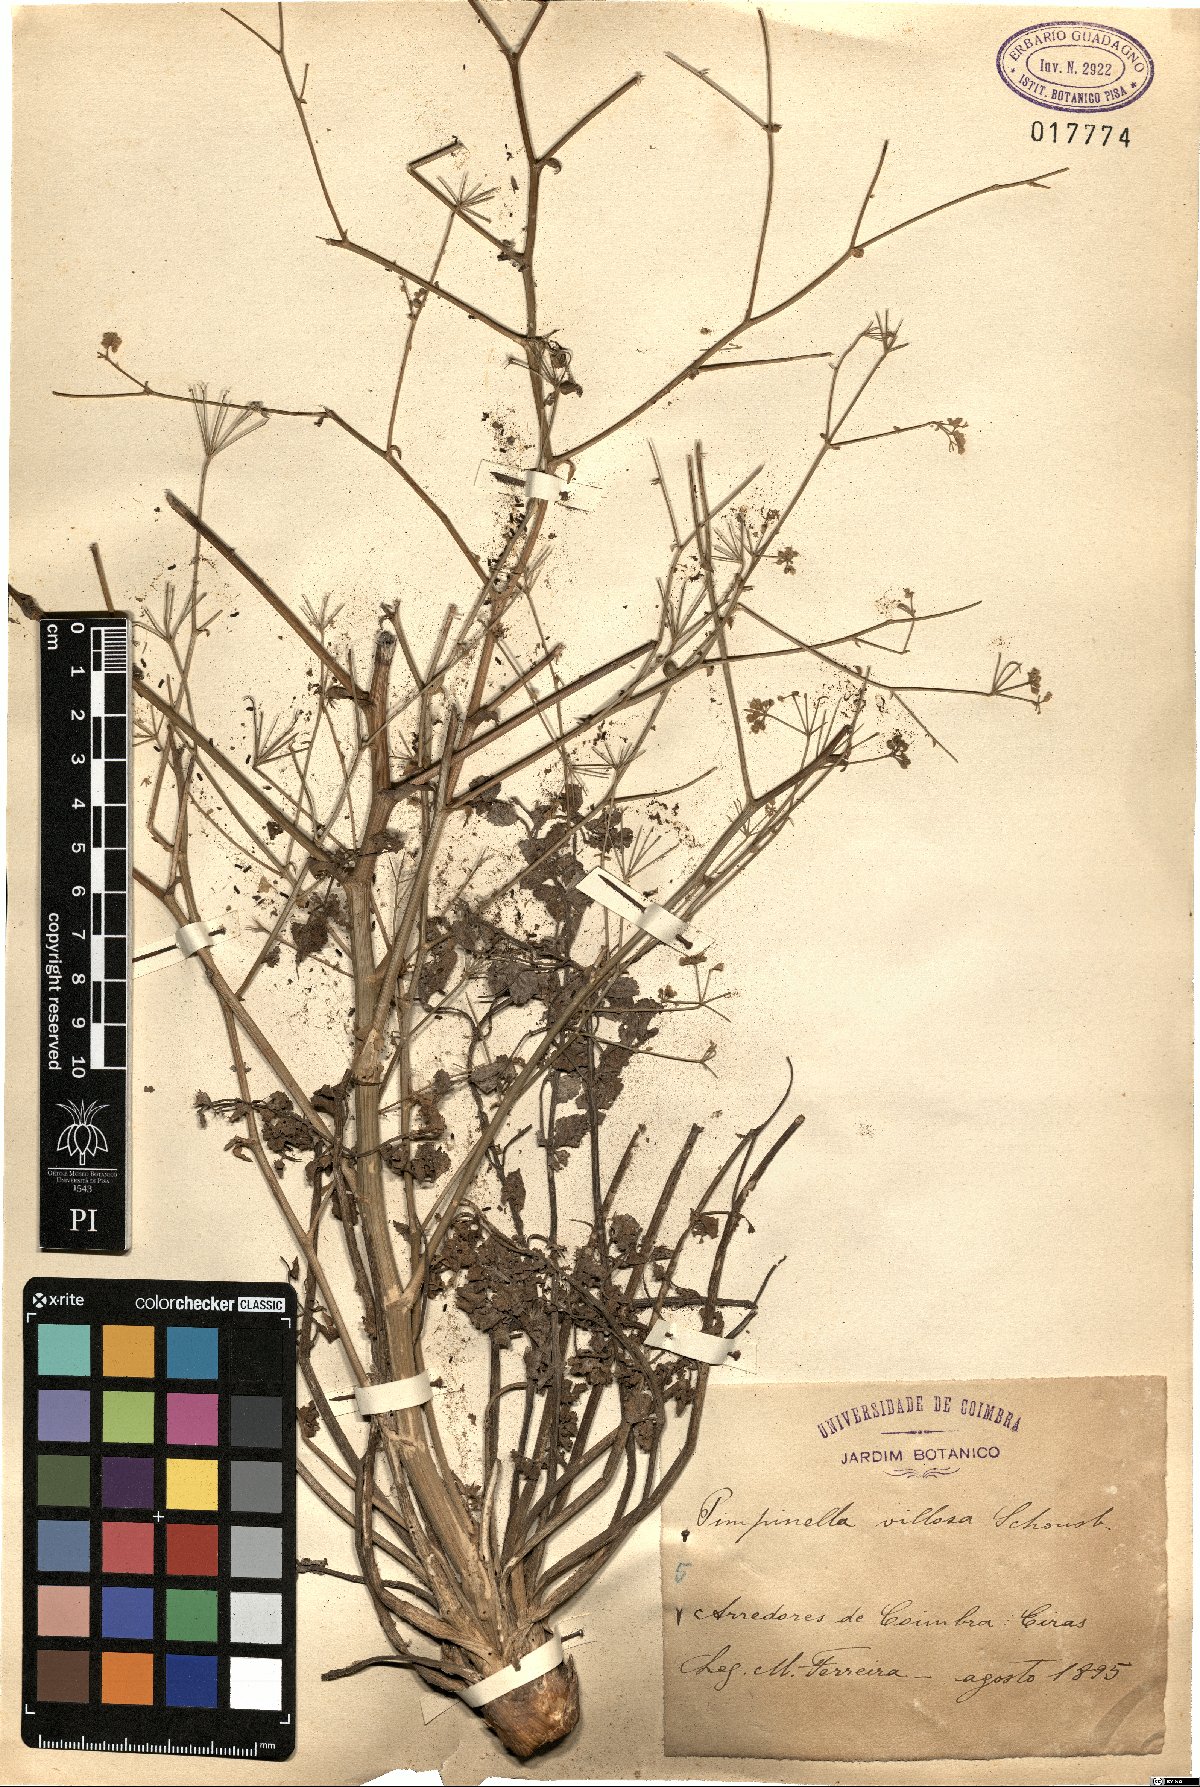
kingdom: Plantae
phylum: Tracheophyta
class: Magnoliopsida
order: Apiales
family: Apiaceae
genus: Pimpinella
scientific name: Pimpinella villosa
